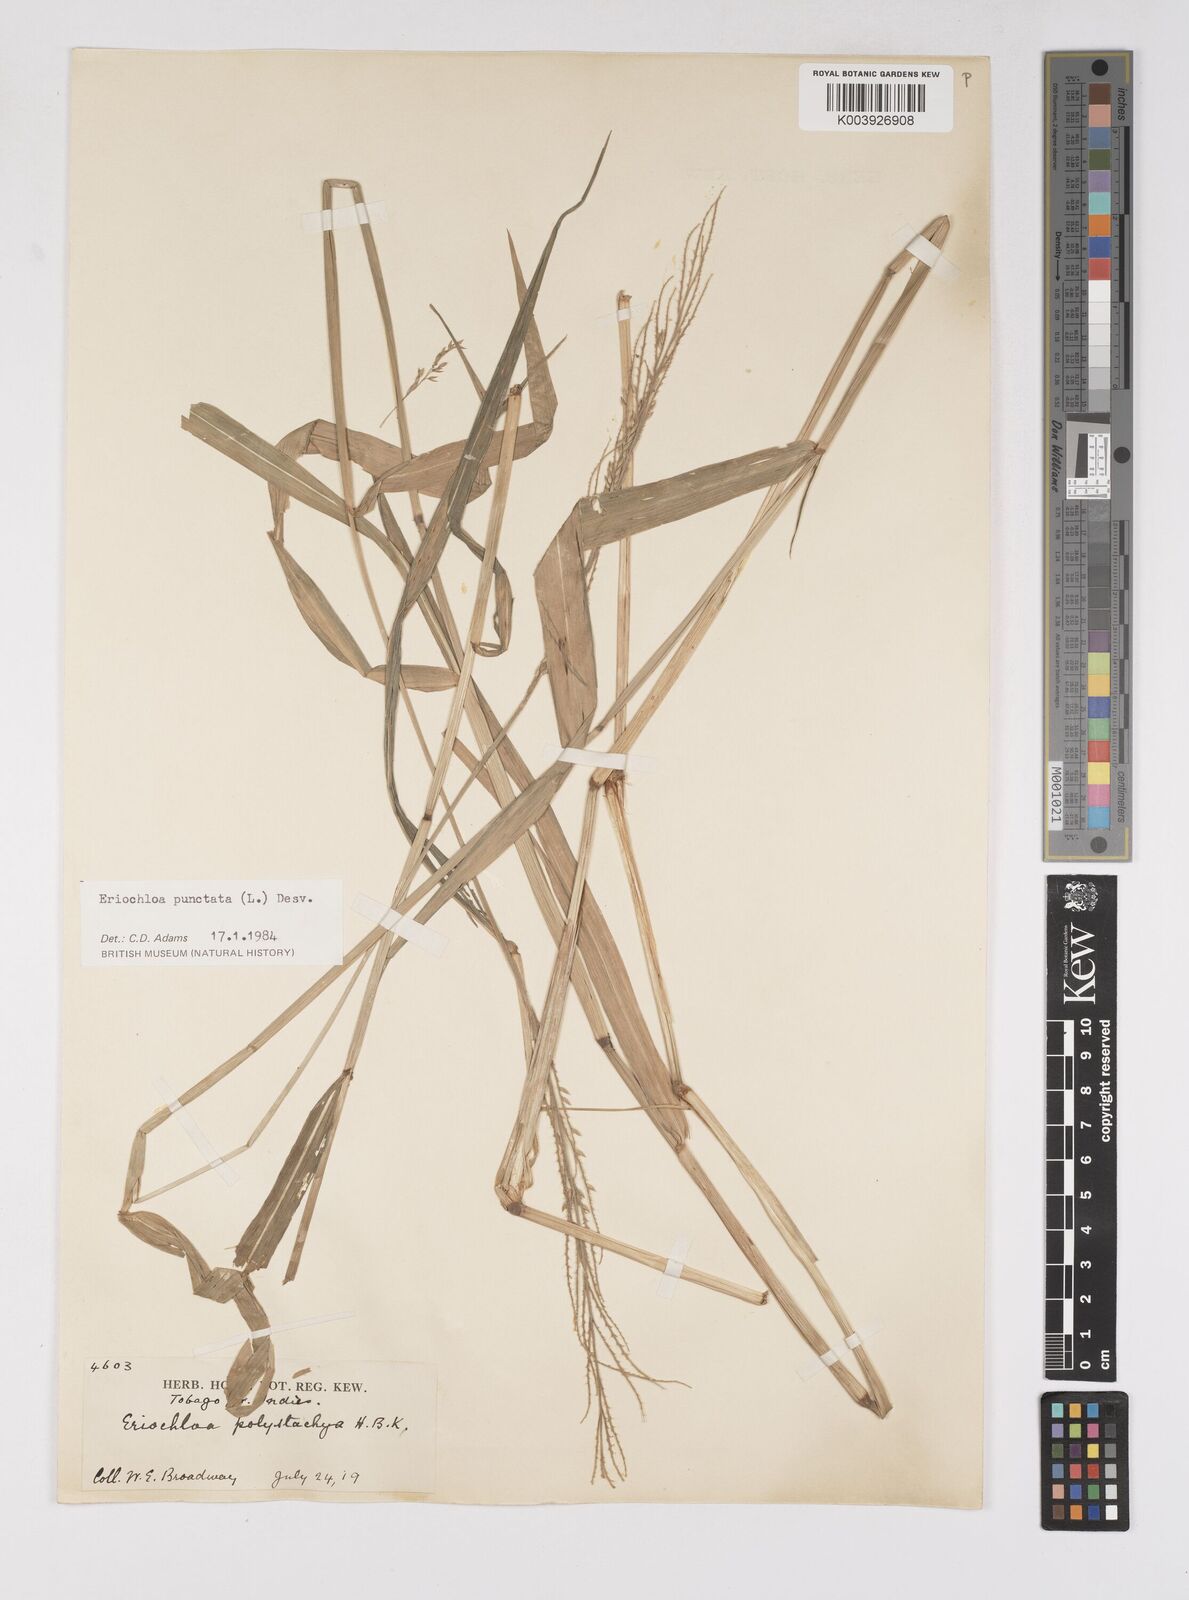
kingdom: Plantae
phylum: Tracheophyta
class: Liliopsida
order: Poales
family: Poaceae
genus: Eriochloa
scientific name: Eriochloa punctata
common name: Louisiana cupgrass
